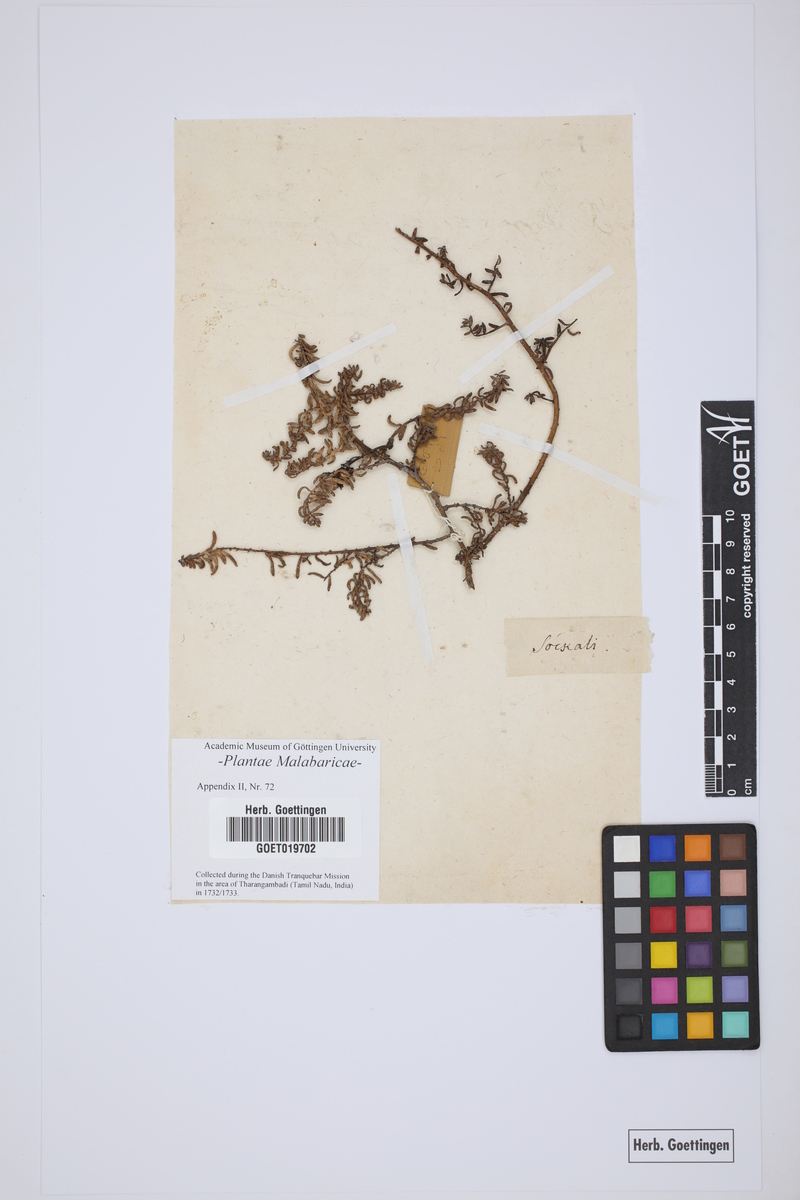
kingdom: Plantae
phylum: Tracheophyta
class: Magnoliopsida
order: Fabales
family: Fabaceae
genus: Aeschynomene
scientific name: Aeschynomene aspera
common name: Pith plant
